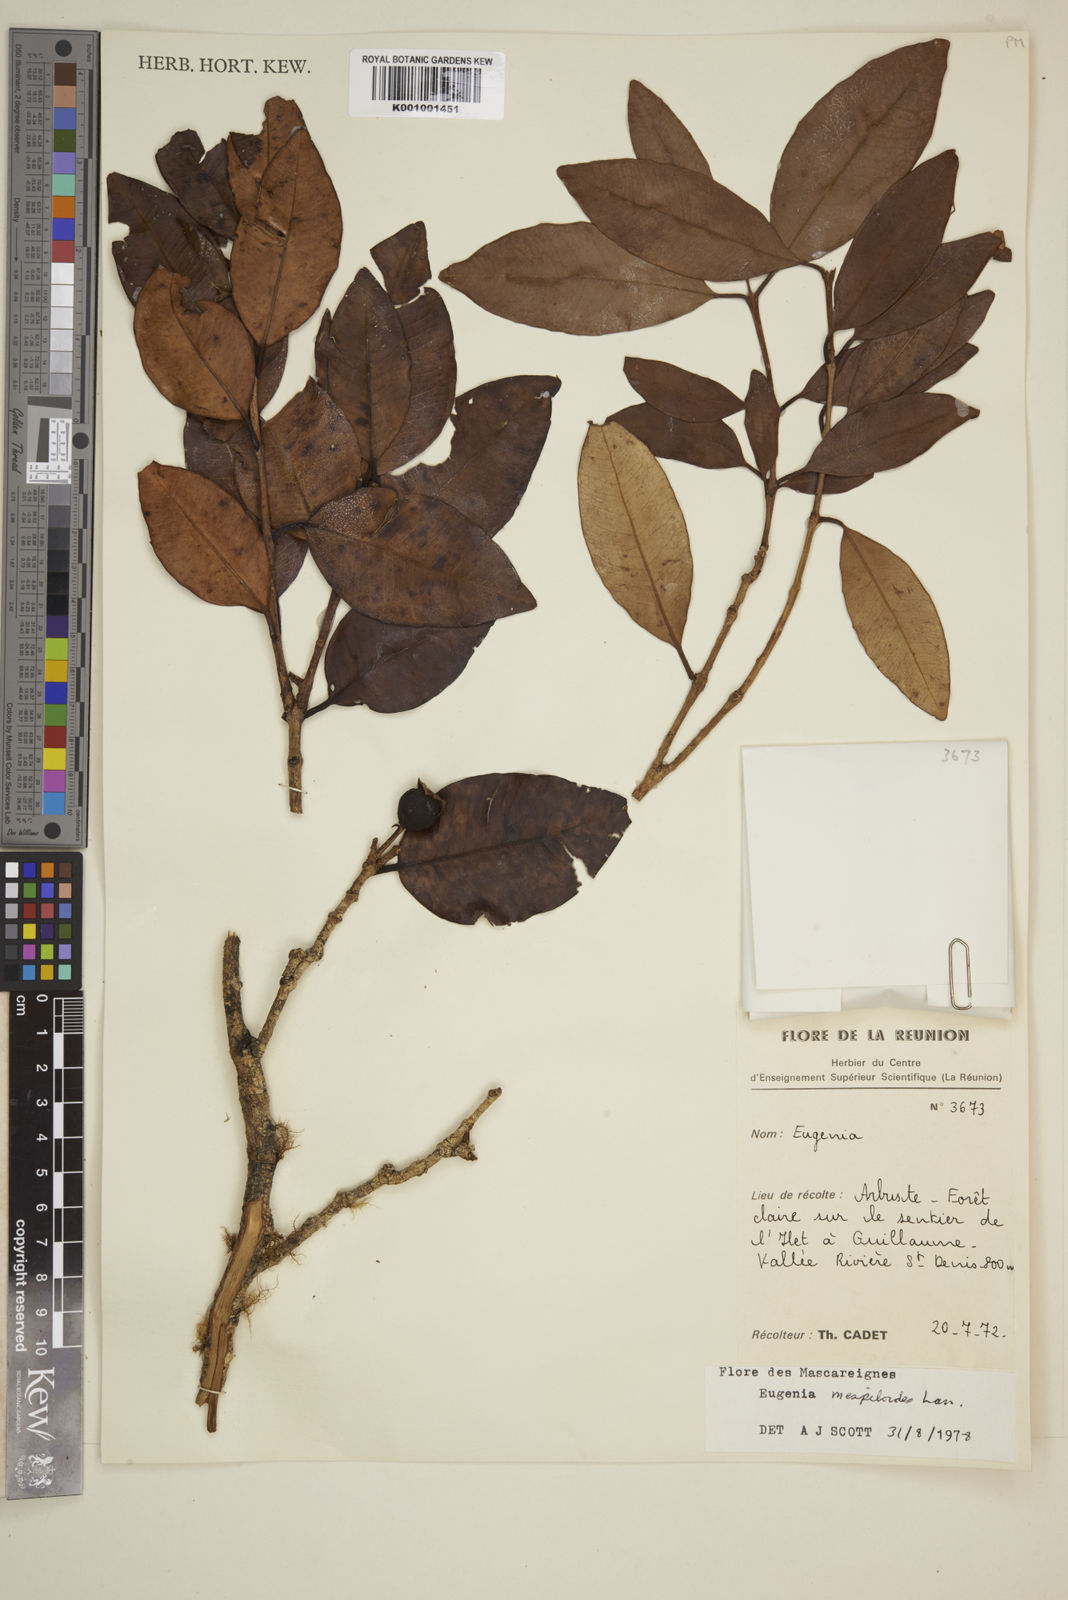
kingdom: Plantae
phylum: Tracheophyta
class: Magnoliopsida
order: Myrtales
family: Myrtaceae
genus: Eugenia
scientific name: Eugenia mespiloides
